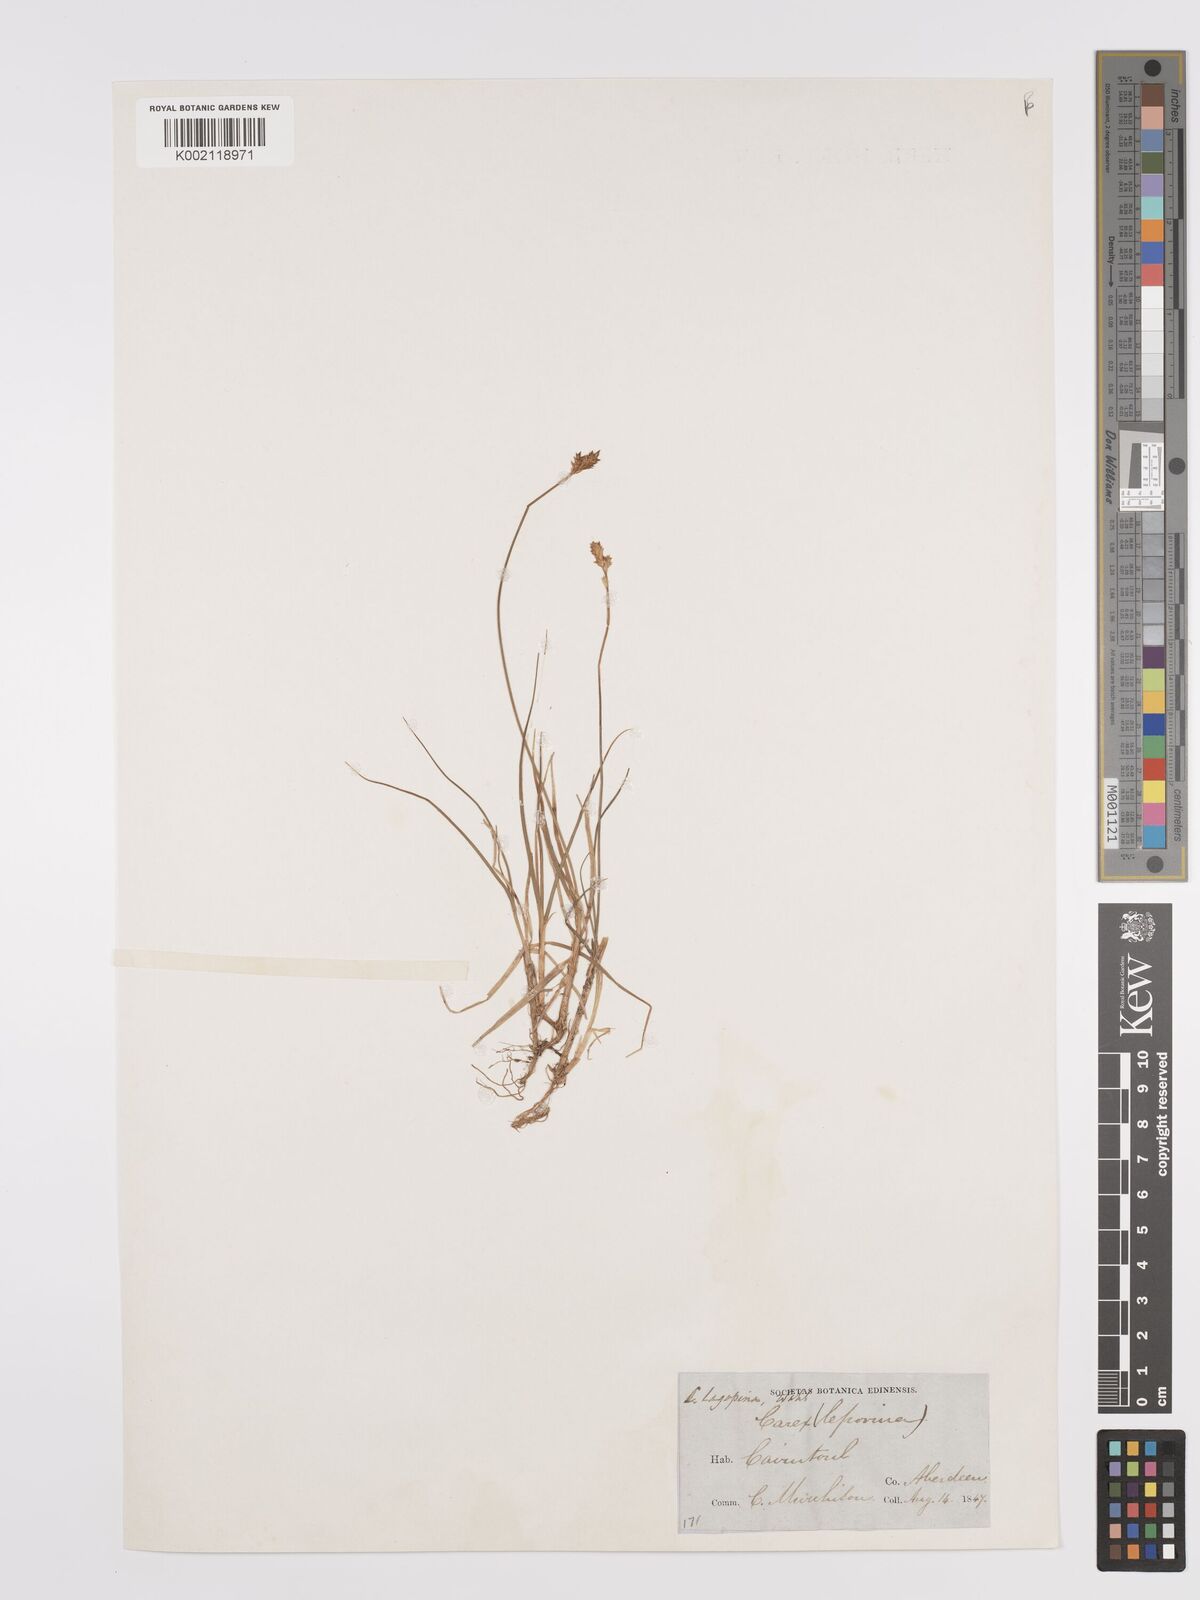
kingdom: Plantae
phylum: Tracheophyta
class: Liliopsida
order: Poales
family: Cyperaceae
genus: Carex
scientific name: Carex leporina
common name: Oval sedge
